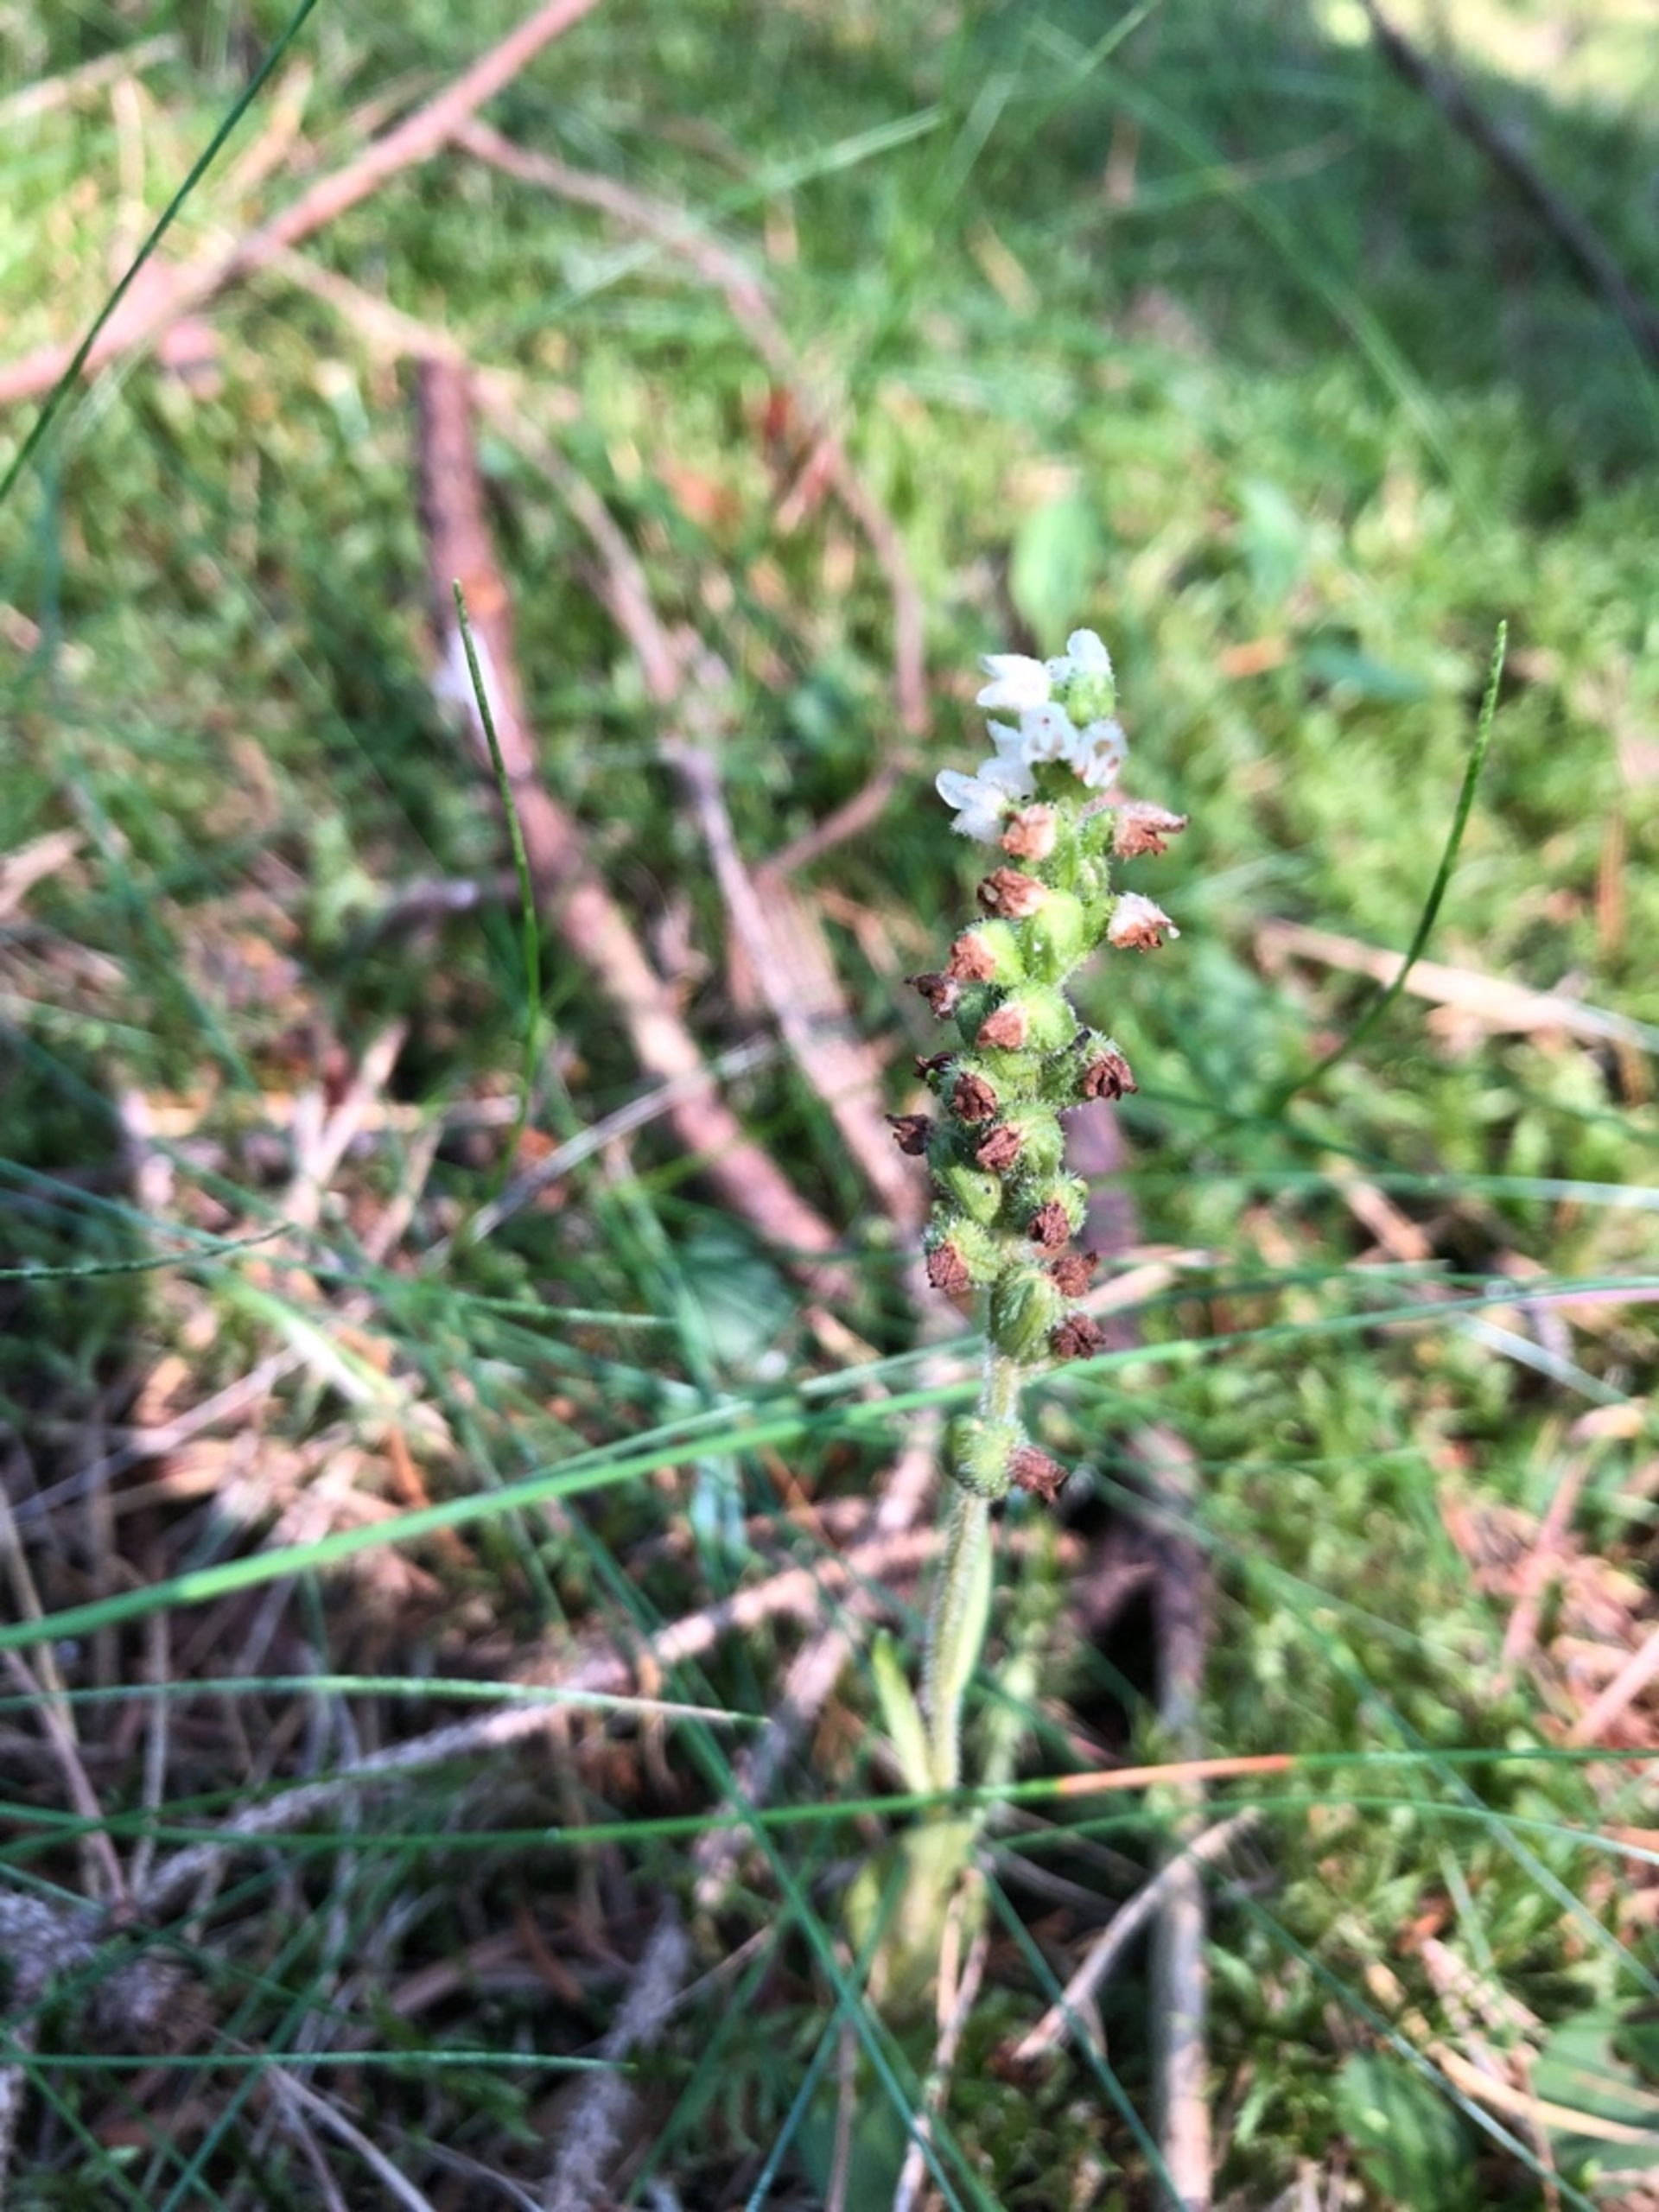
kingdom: Plantae
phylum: Tracheophyta
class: Liliopsida
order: Asparagales
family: Orchidaceae
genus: Goodyera
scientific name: Goodyera repens
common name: Knærod
